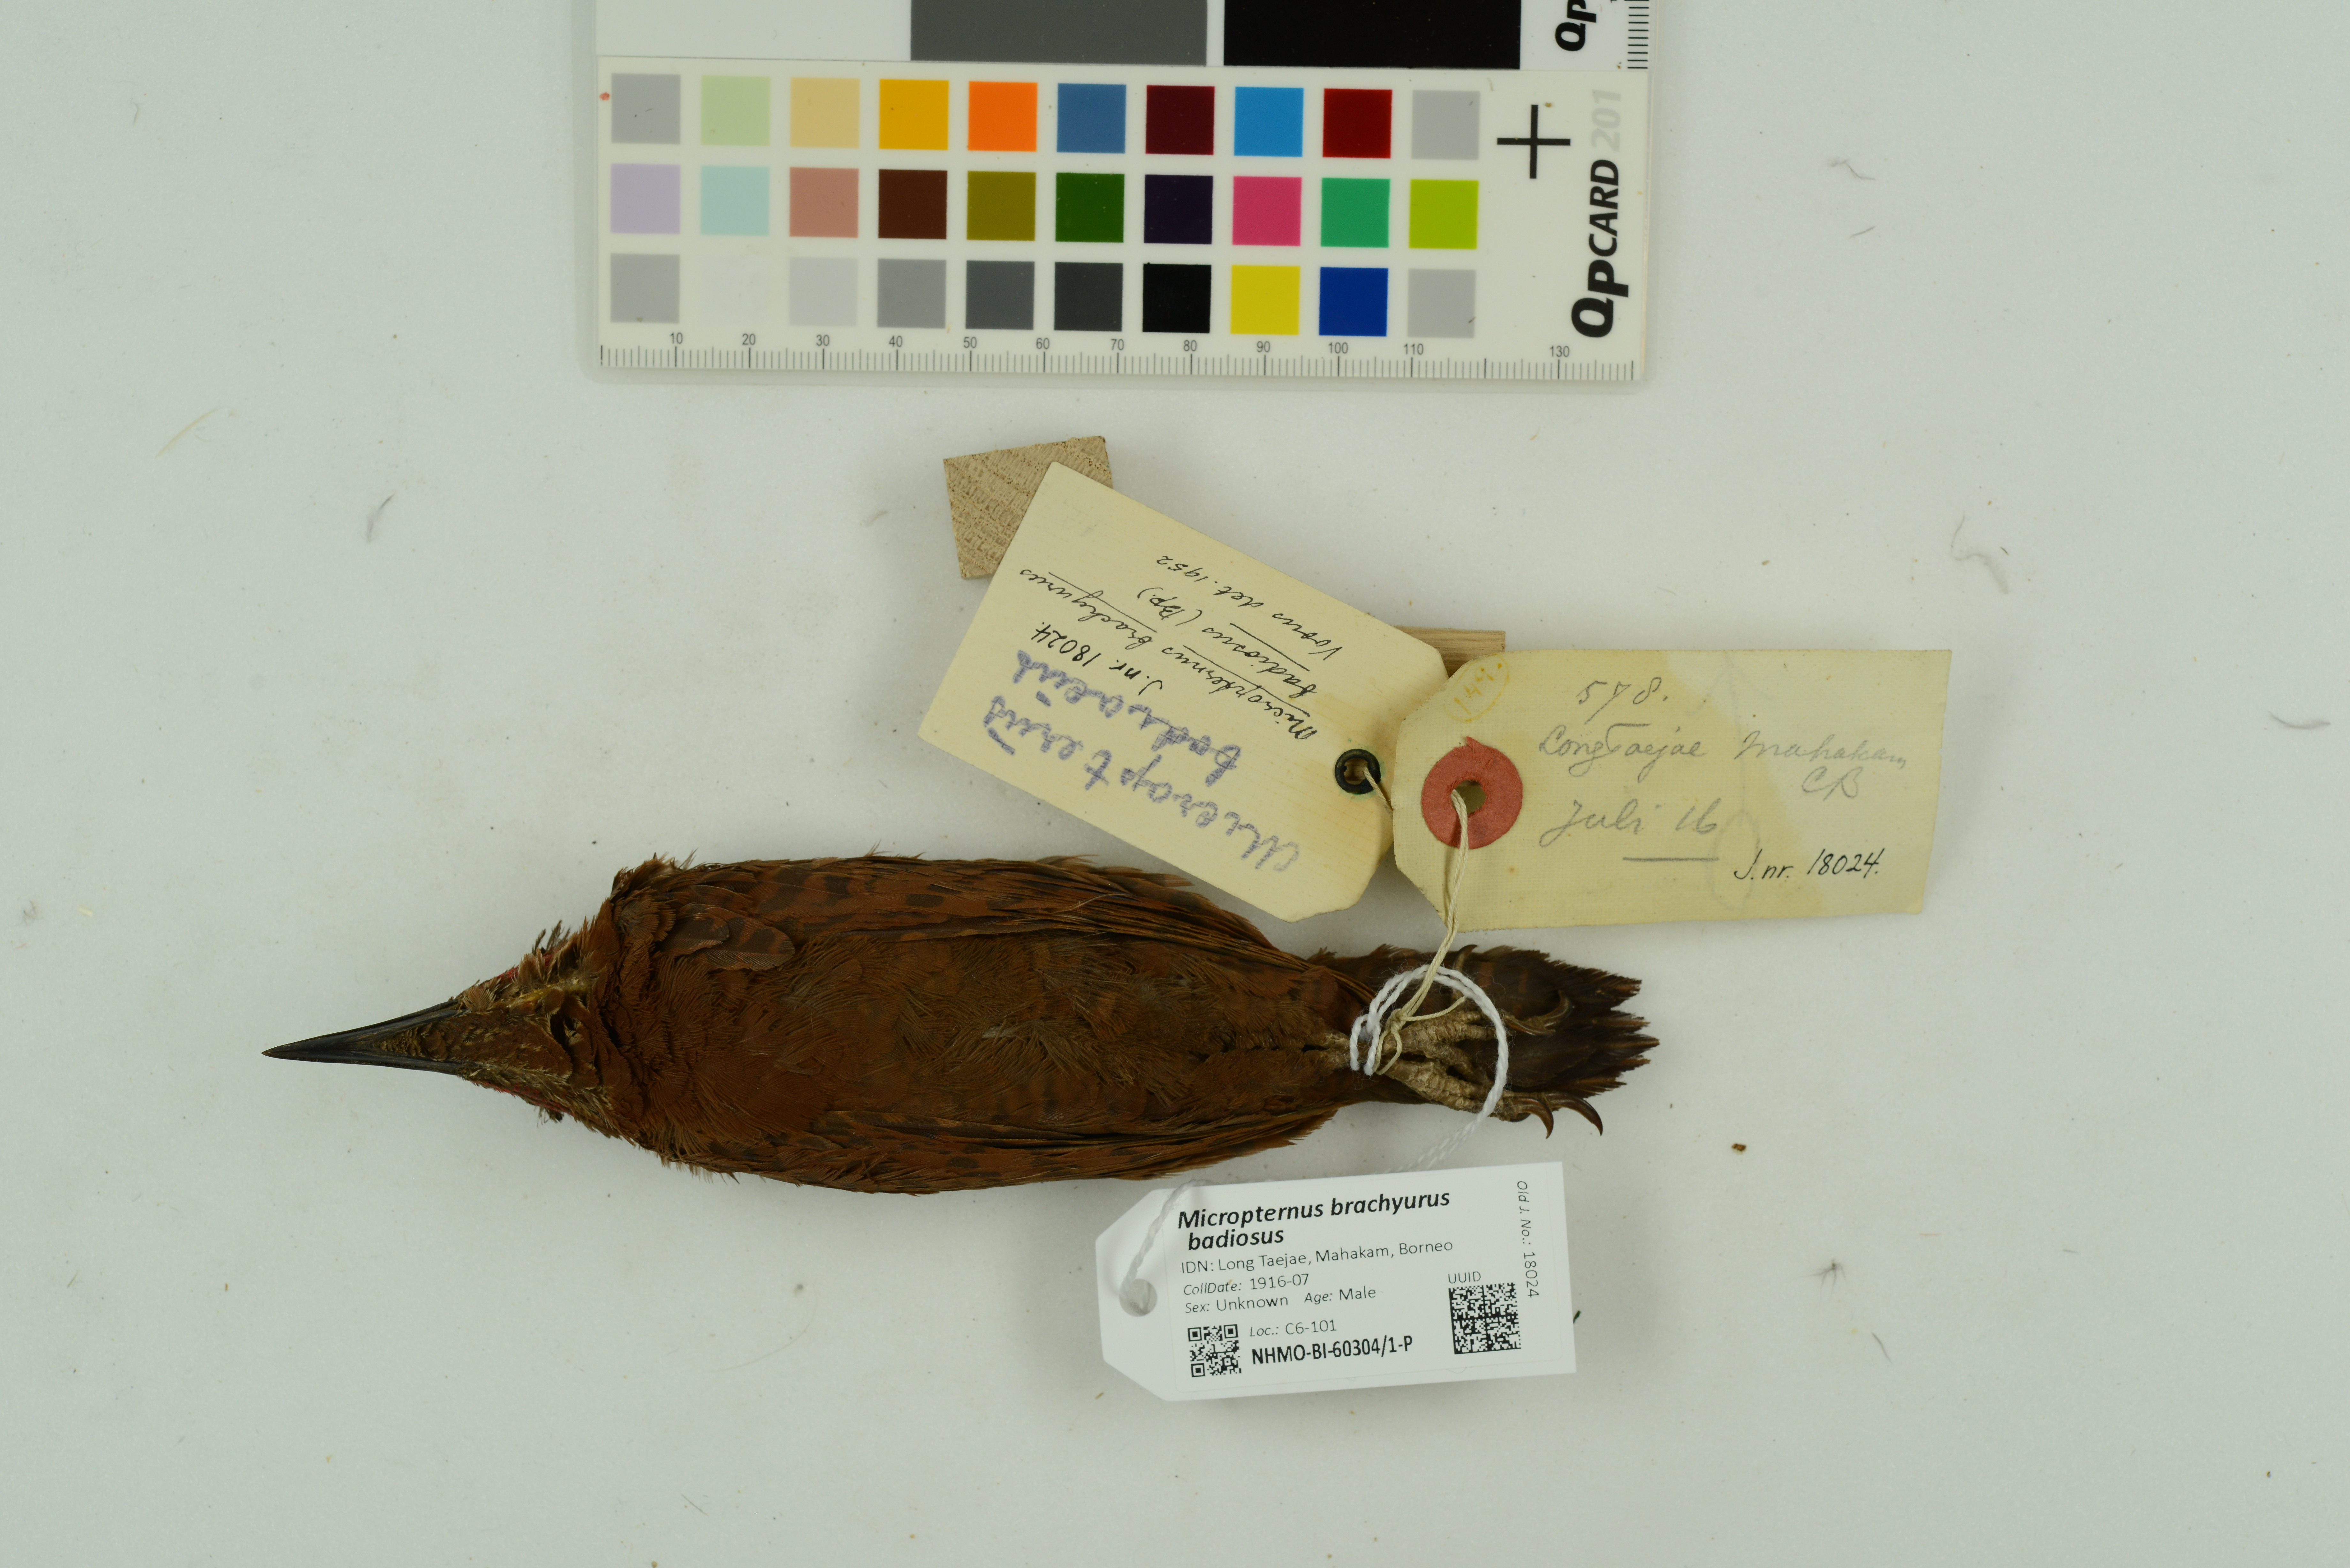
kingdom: Animalia
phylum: Chordata
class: Aves
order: Piciformes
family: Picidae
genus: Micropternus
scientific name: Micropternus brachyurus
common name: Rufous woodpecker
